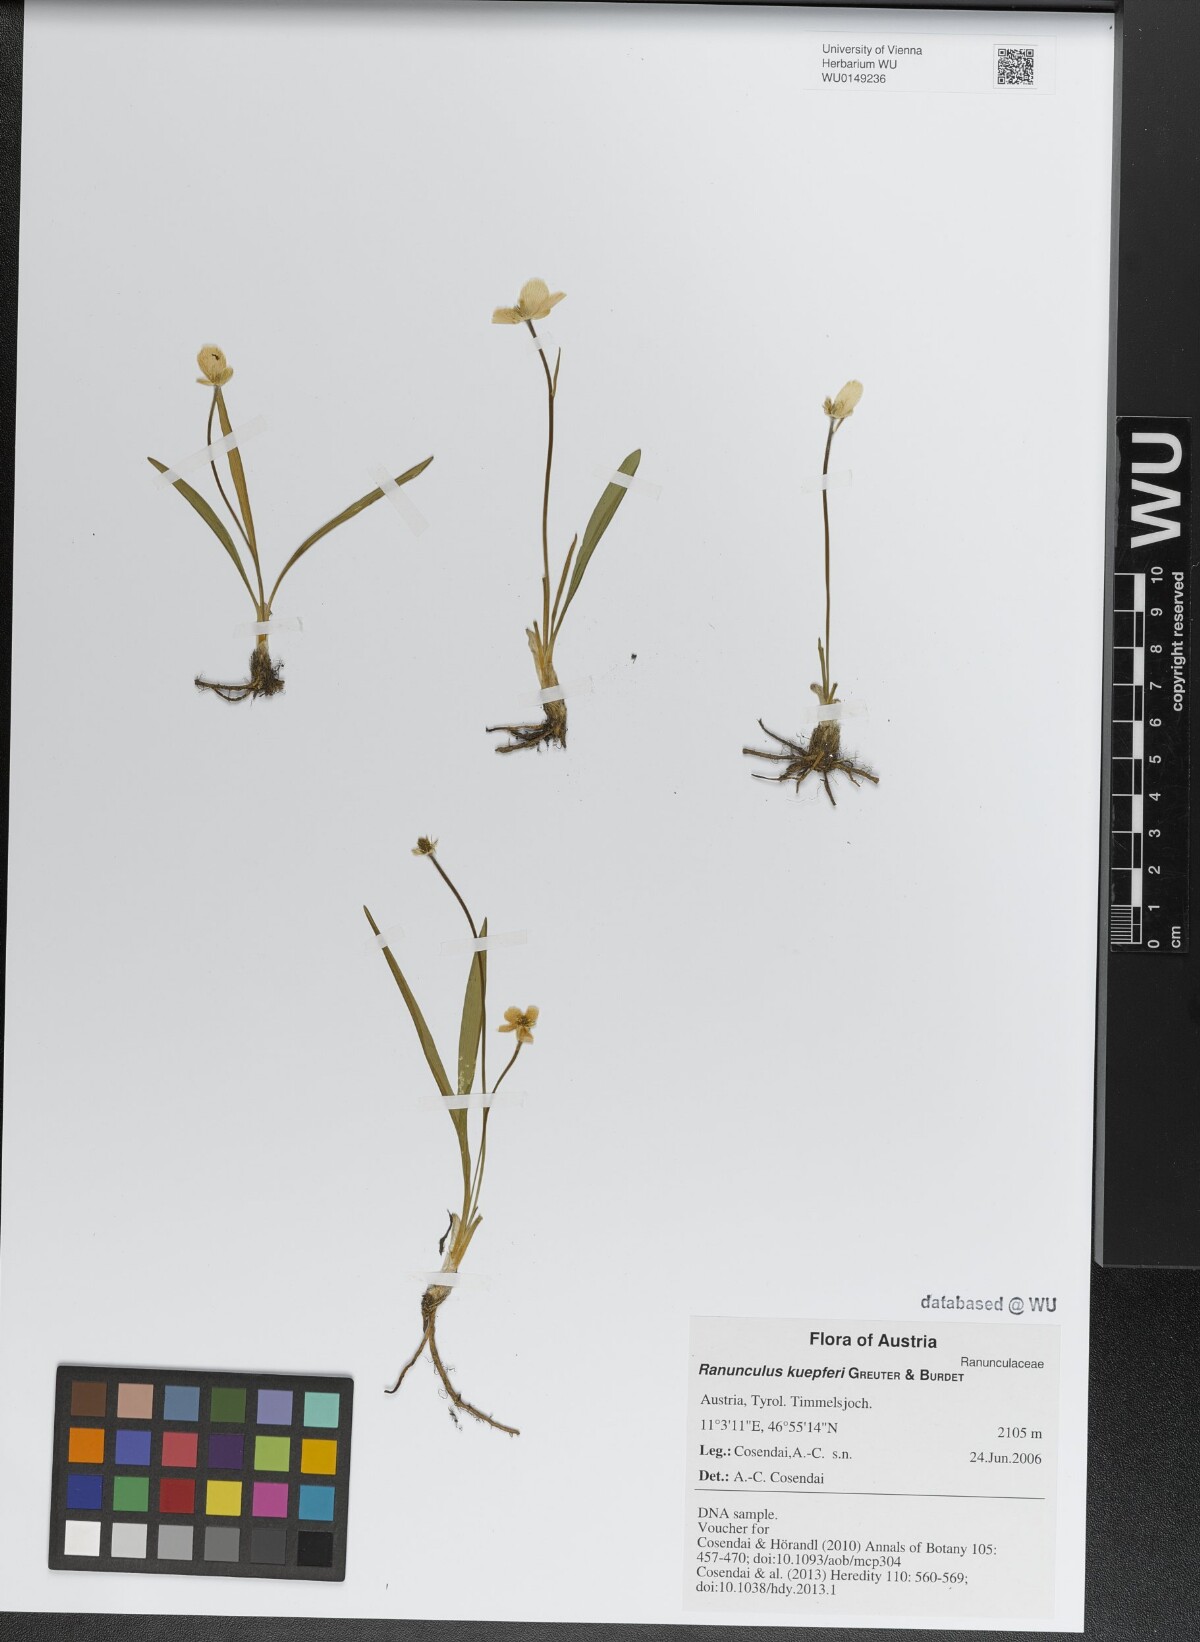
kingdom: Plantae
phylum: Tracheophyta
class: Magnoliopsida
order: Ranunculales
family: Ranunculaceae
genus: Ranunculus
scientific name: Ranunculus kuepferi
